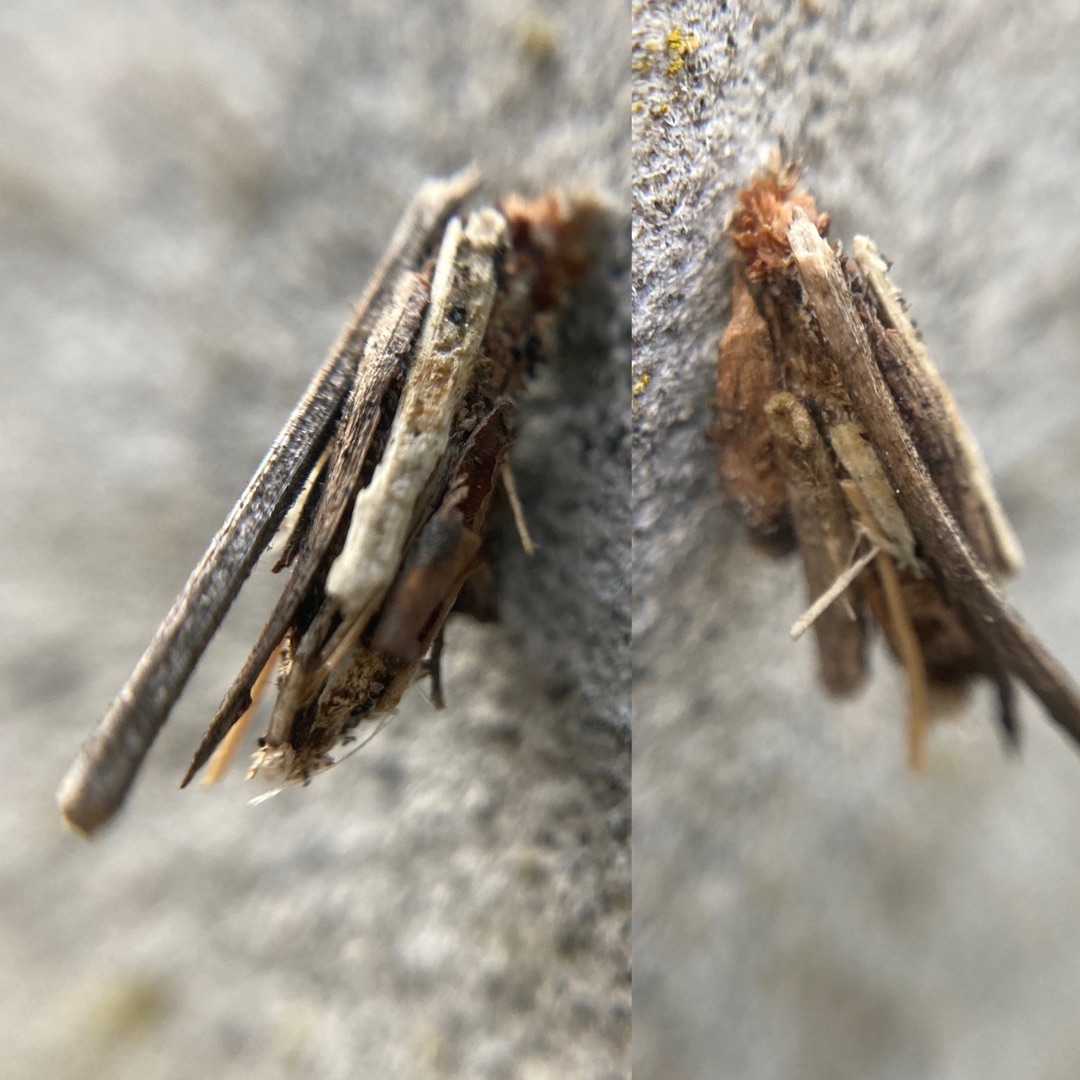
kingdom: Animalia
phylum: Arthropoda
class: Insecta
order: Lepidoptera
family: Psychidae
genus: Psyche
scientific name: Psyche casta
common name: Lille stråsækbærer
